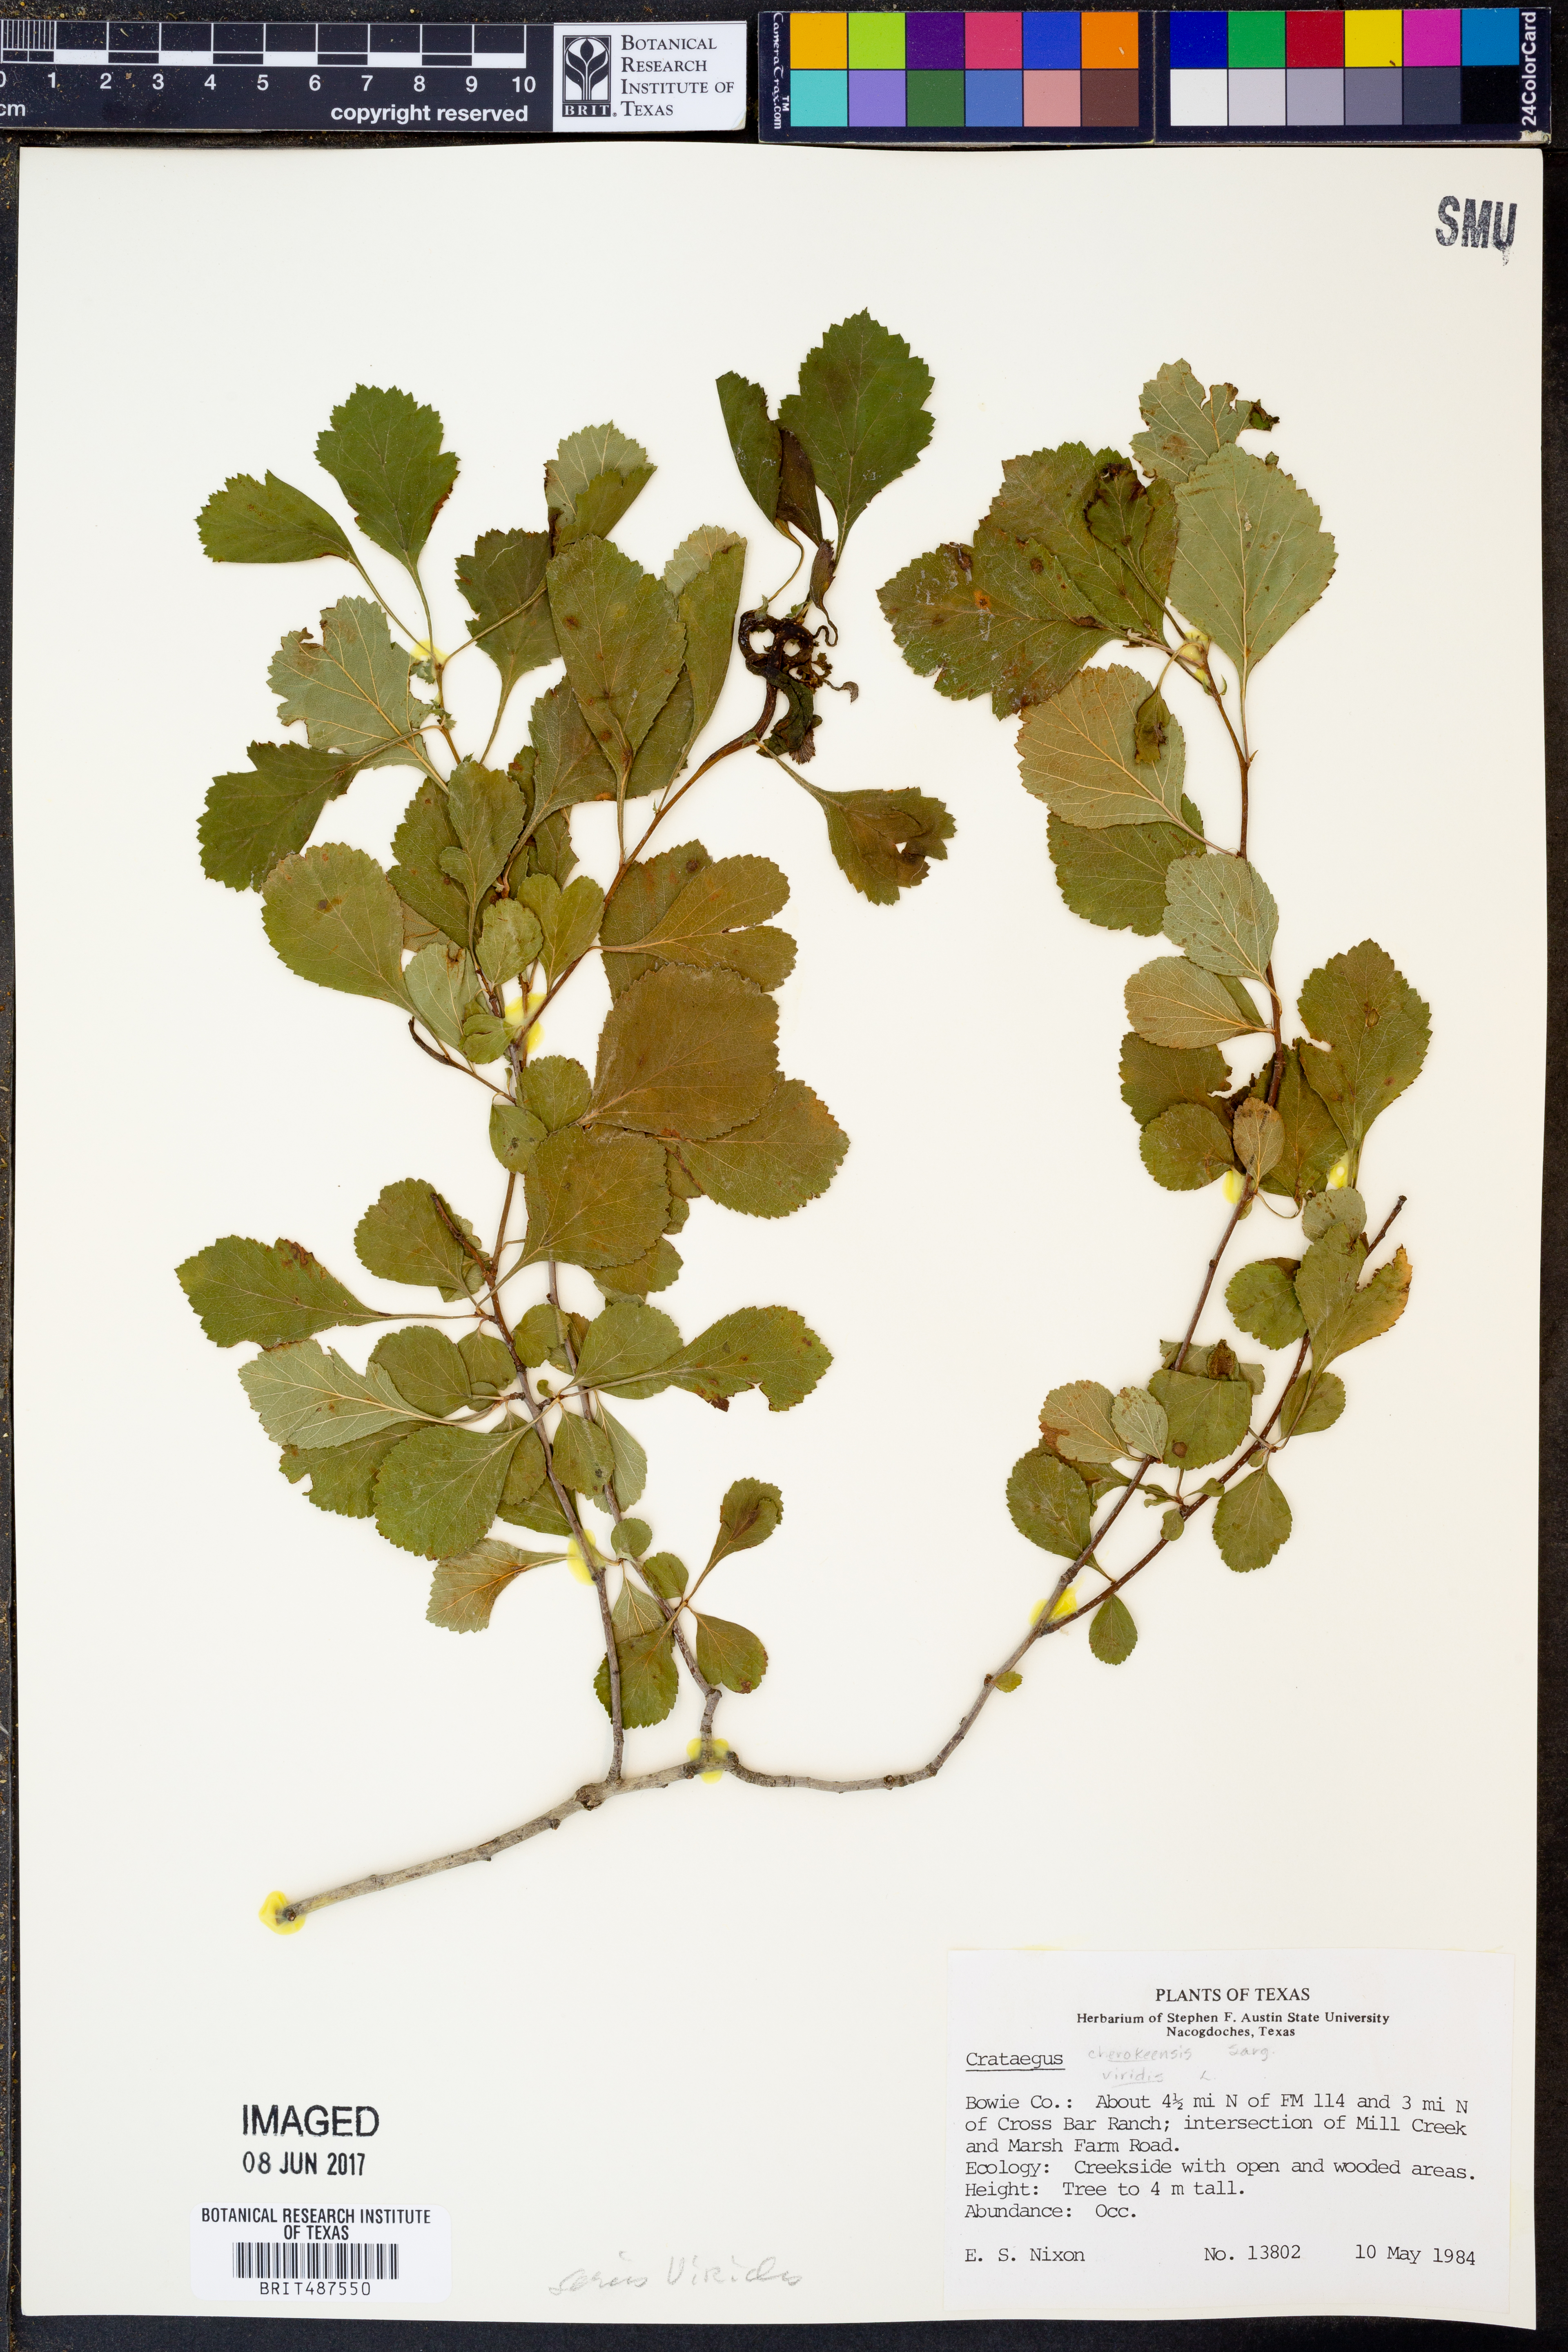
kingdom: Plantae
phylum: Tracheophyta
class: Magnoliopsida
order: Rosales
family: Rosaceae
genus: Crataegus
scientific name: Crataegus crus-galli
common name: Cockspurthorn
